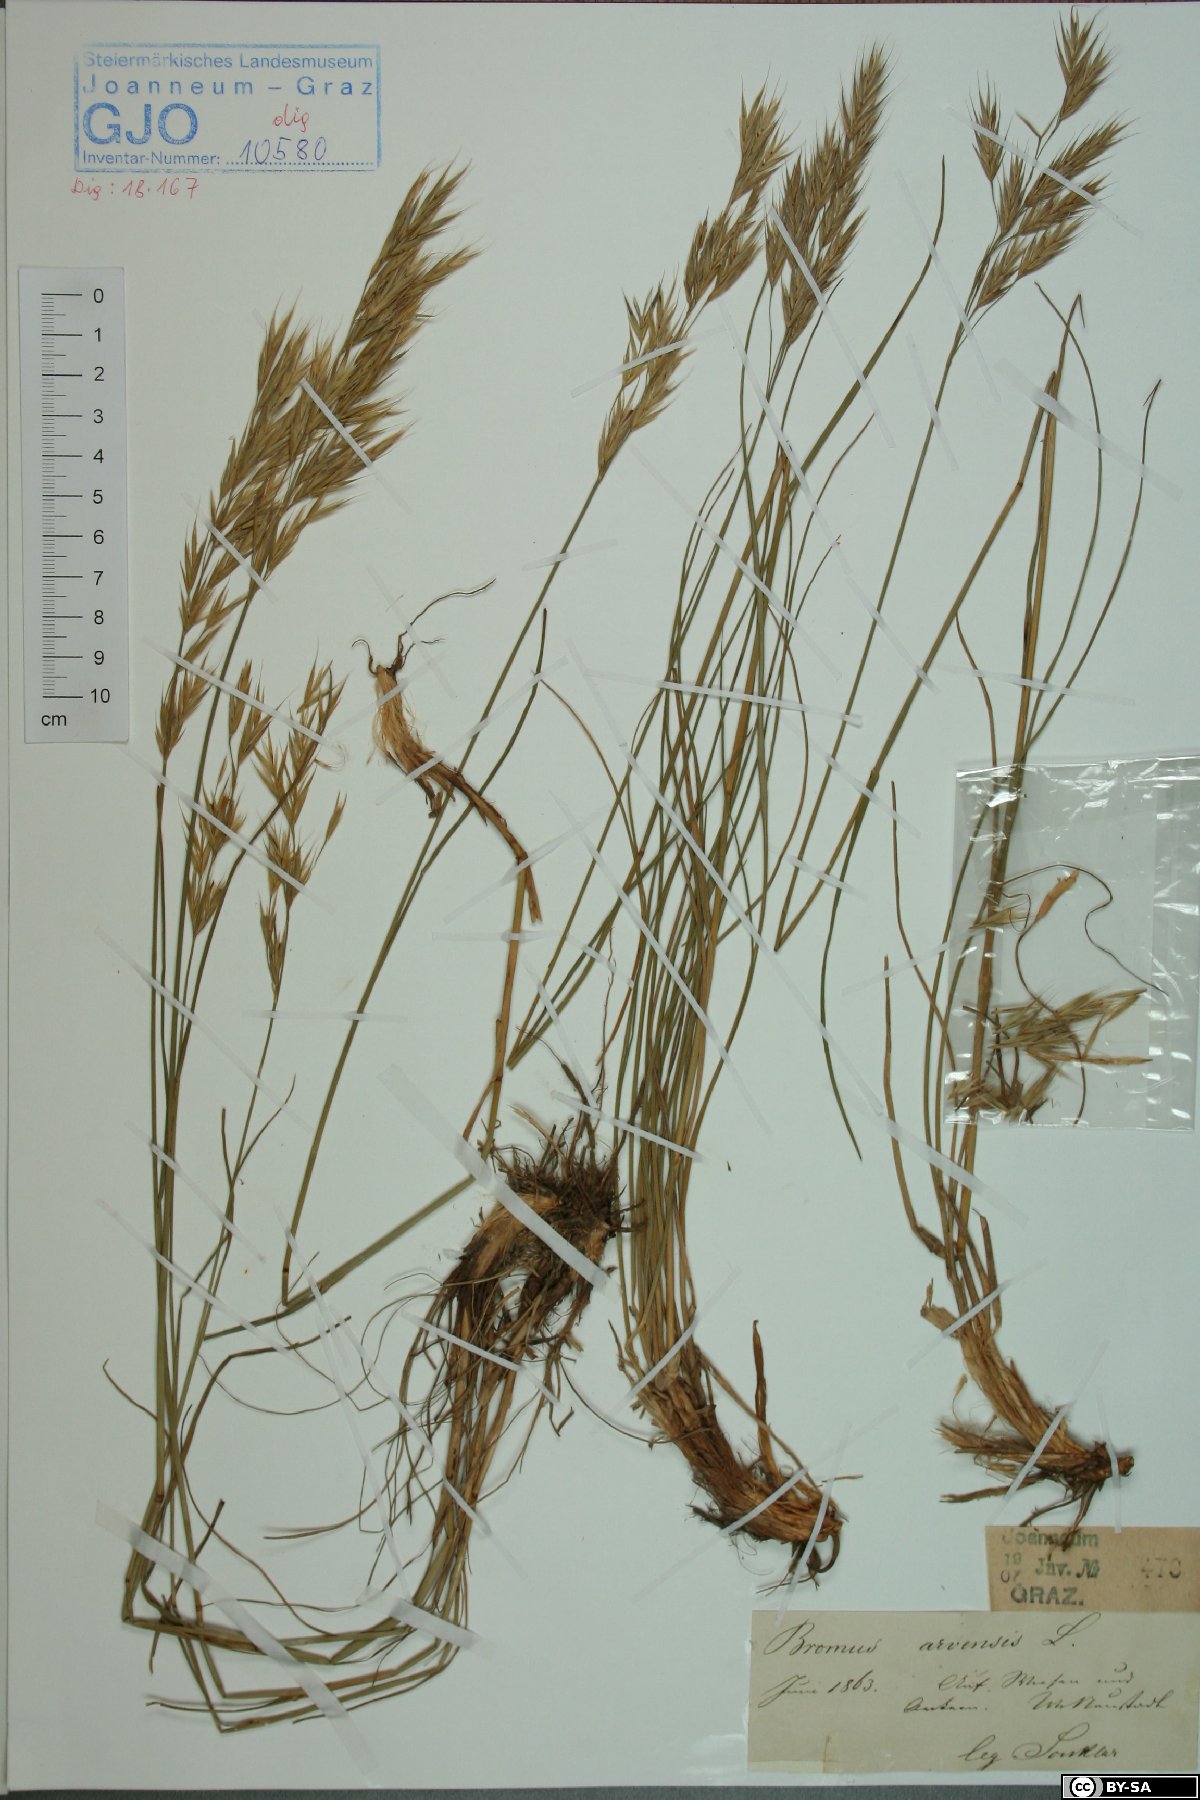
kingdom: Plantae
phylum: Tracheophyta
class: Liliopsida
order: Poales
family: Poaceae
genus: Bromus
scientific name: Bromus arvensis
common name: Field brome
